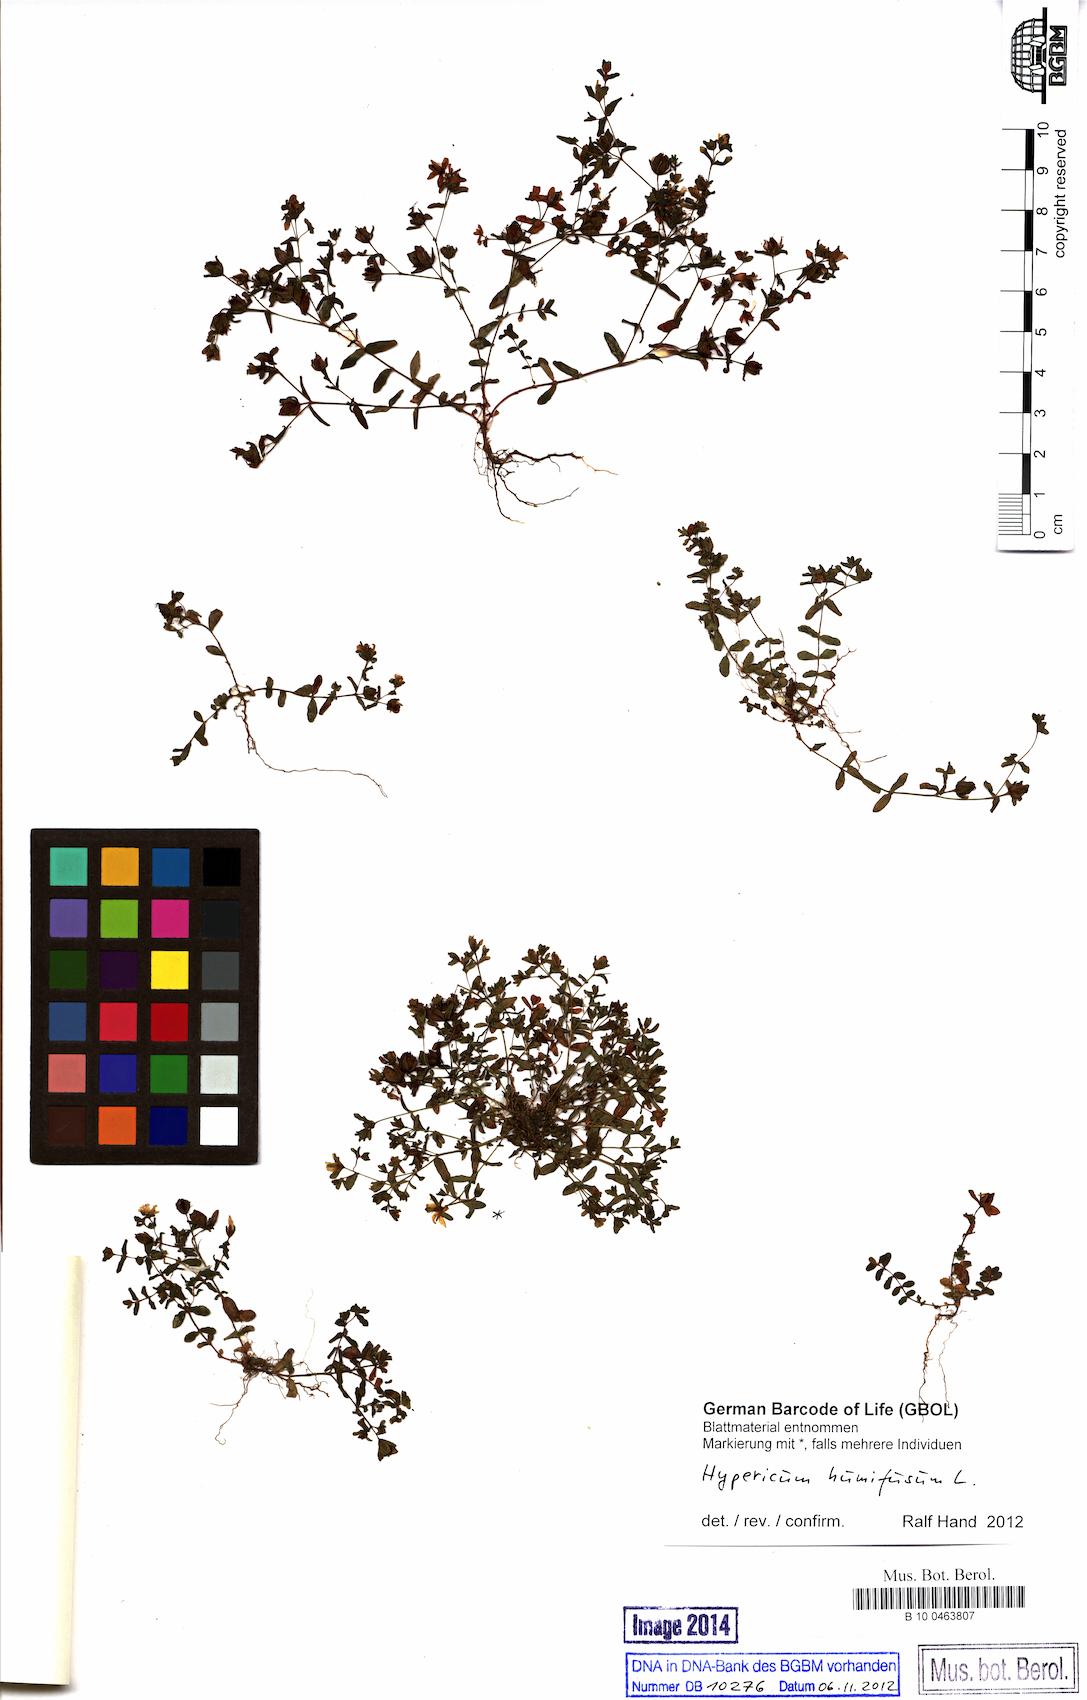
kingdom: Plantae
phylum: Tracheophyta
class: Magnoliopsida
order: Malpighiales
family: Hypericaceae
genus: Hypericum
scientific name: Hypericum humifusum
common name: Trailing st. john's-wort
